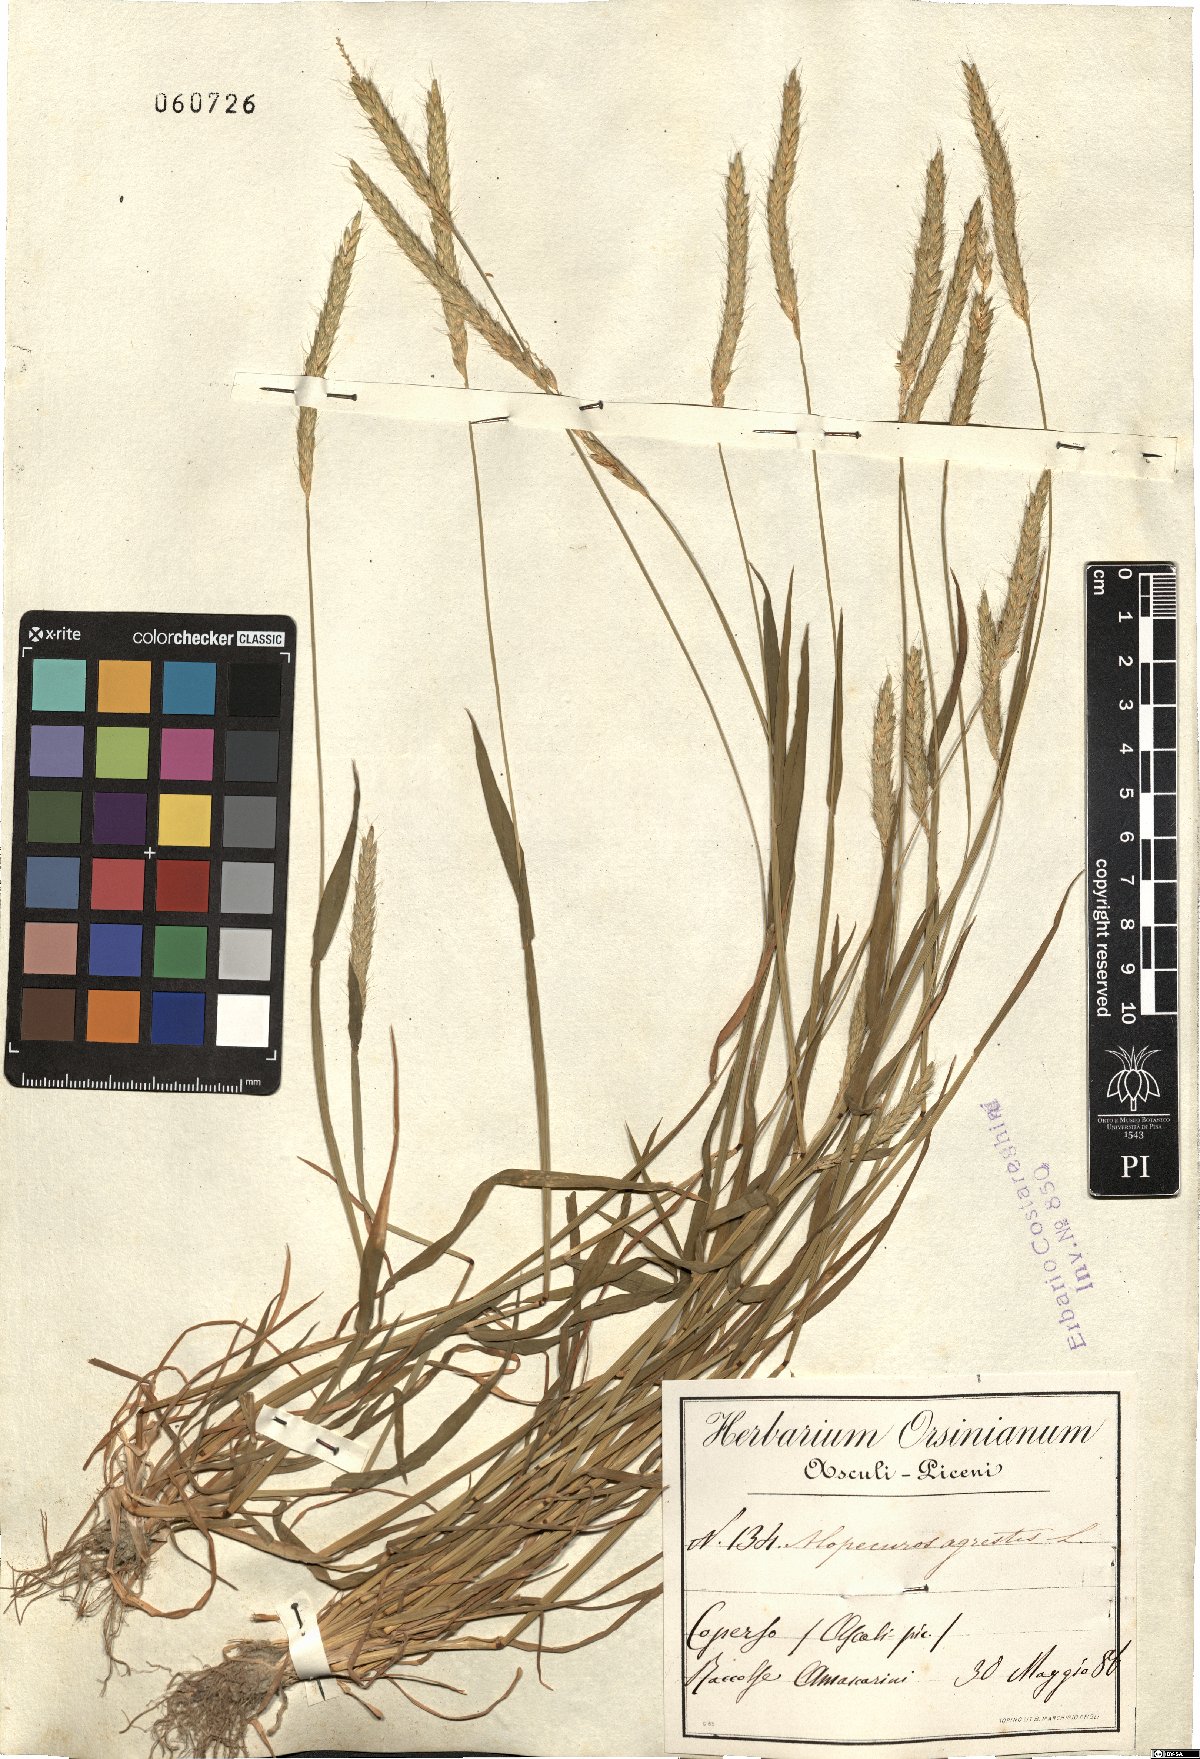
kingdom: Plantae
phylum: Tracheophyta
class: Liliopsida
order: Poales
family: Poaceae
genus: Alopecurus
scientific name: Alopecurus myosuroides
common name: Black-grass
